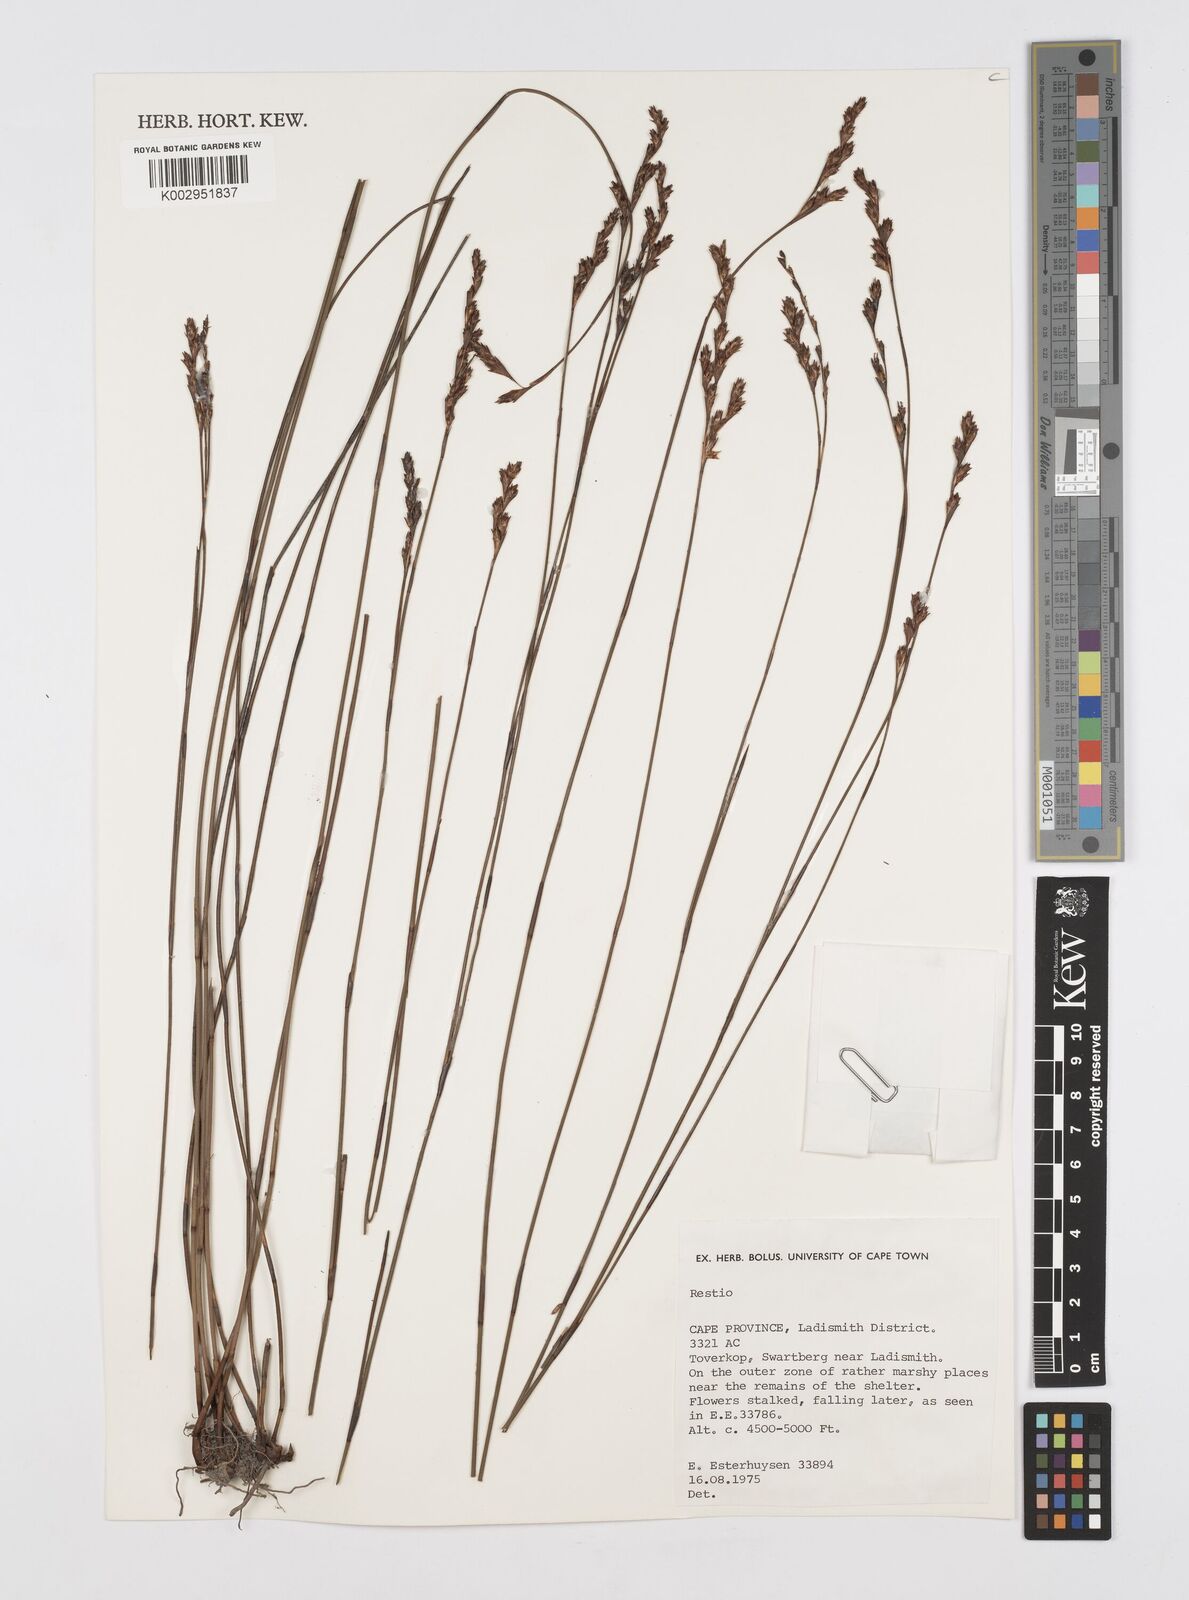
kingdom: Plantae
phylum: Tracheophyta
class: Liliopsida
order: Poales
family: Restionaceae
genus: Restio
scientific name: Restio
